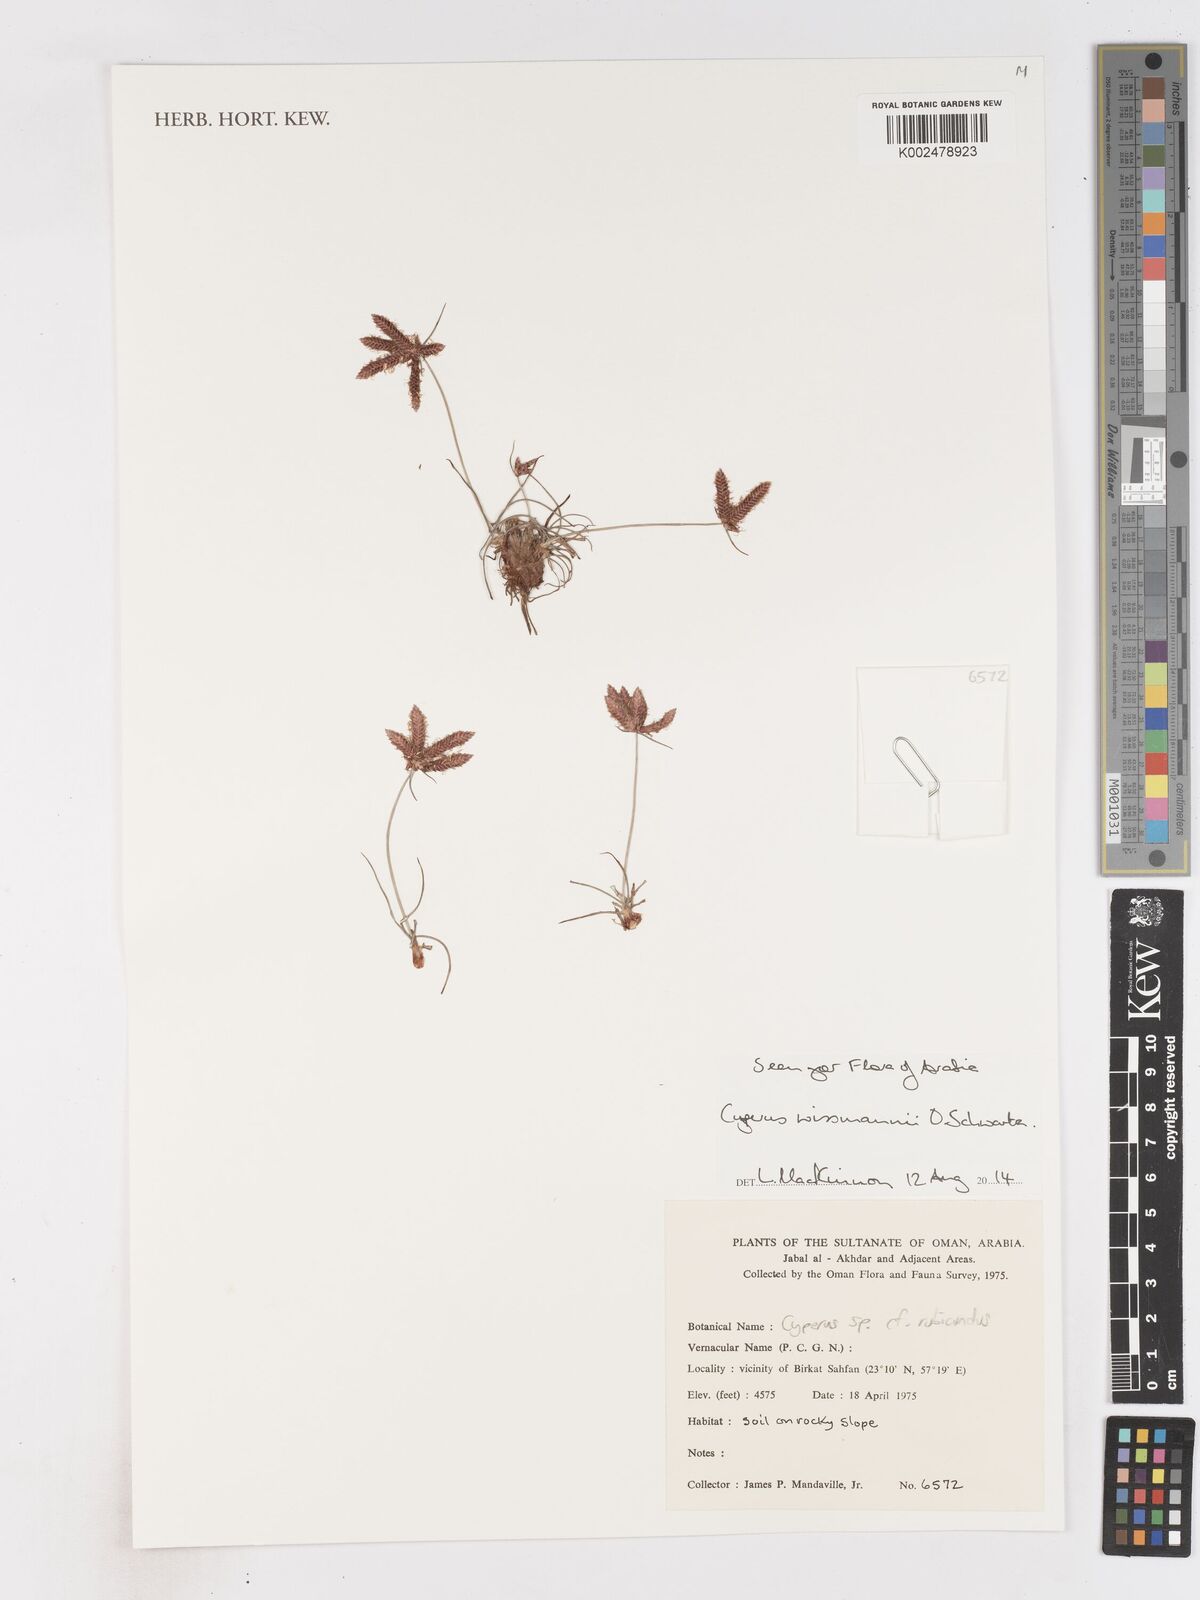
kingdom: Plantae
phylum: Tracheophyta
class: Liliopsida
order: Poales
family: Cyperaceae
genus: Cyperus
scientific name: Cyperus wissmannii
